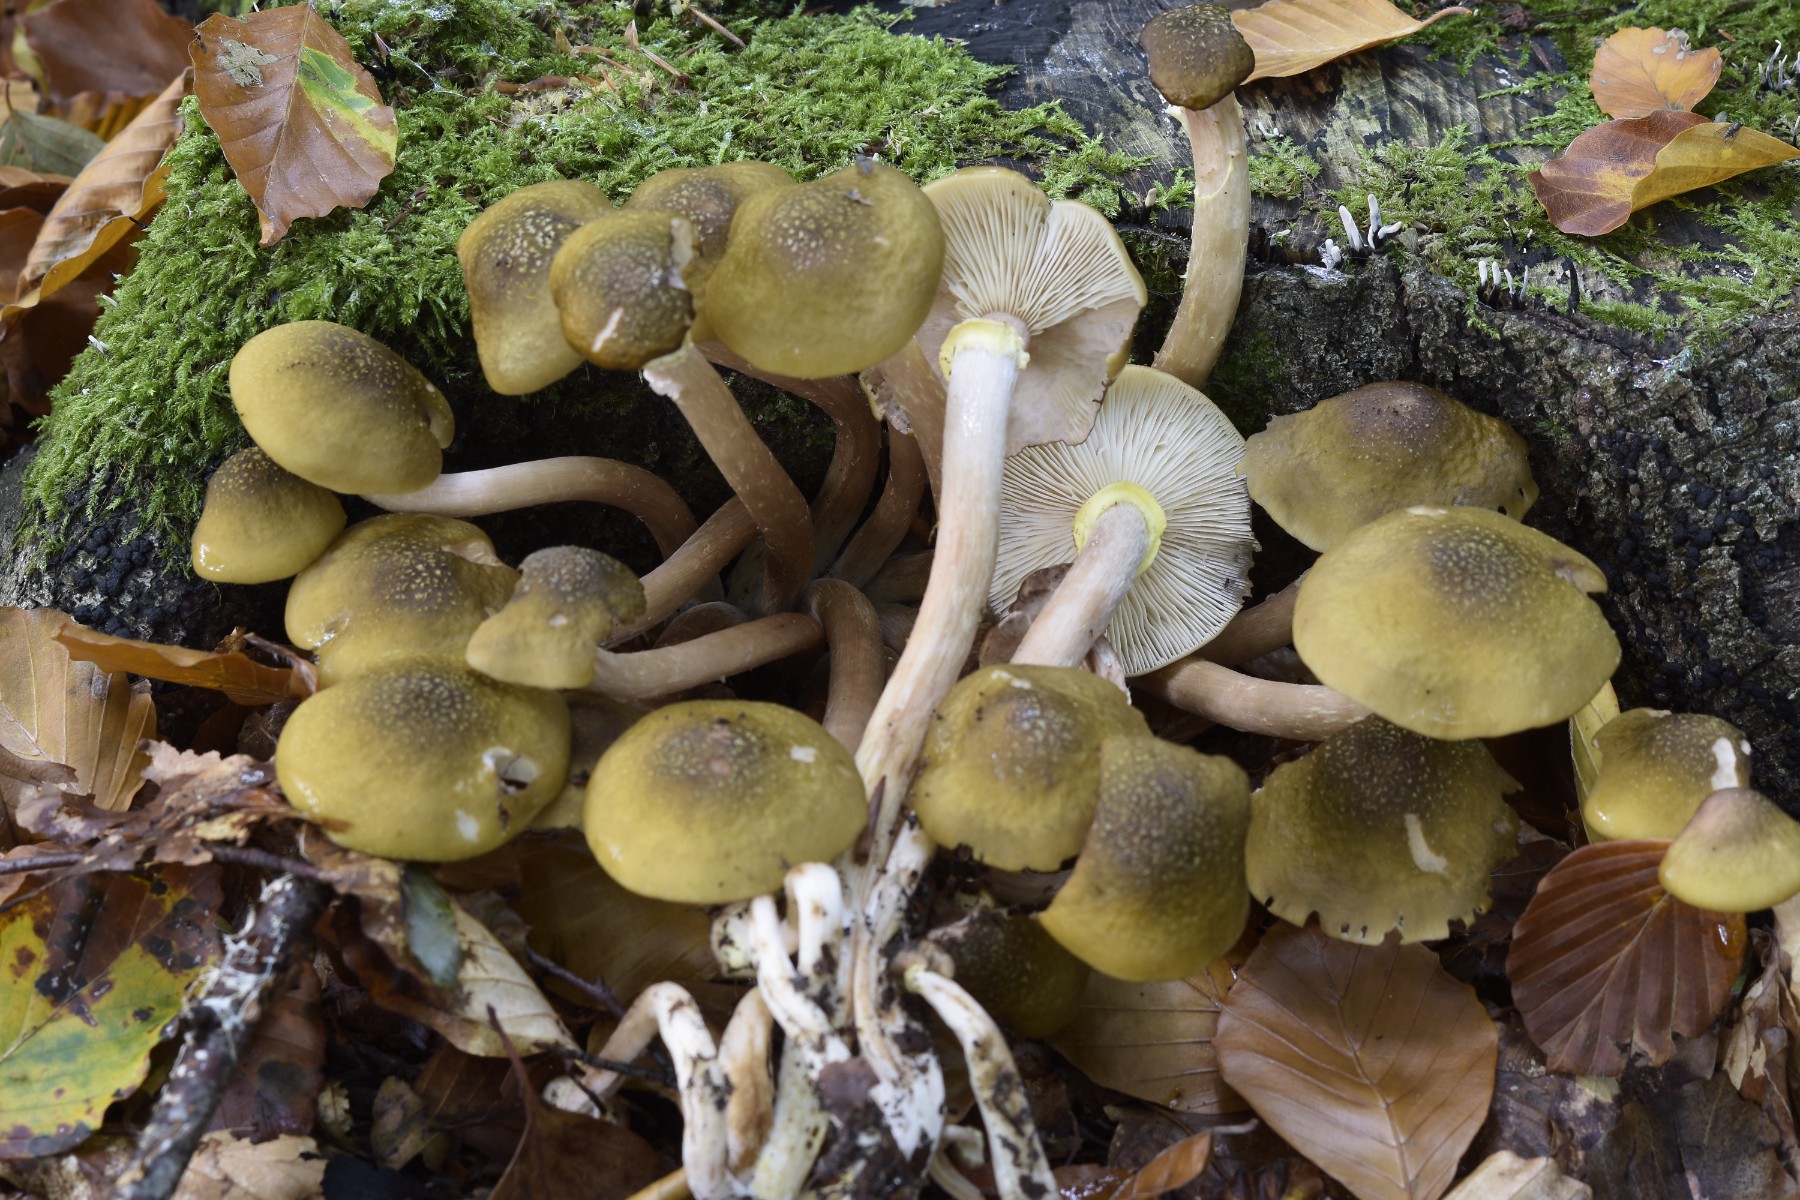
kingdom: Fungi
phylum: Basidiomycota
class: Agaricomycetes
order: Agaricales
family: Physalacriaceae
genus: Armillaria
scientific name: Armillaria mellea
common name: ægte honningsvamp
